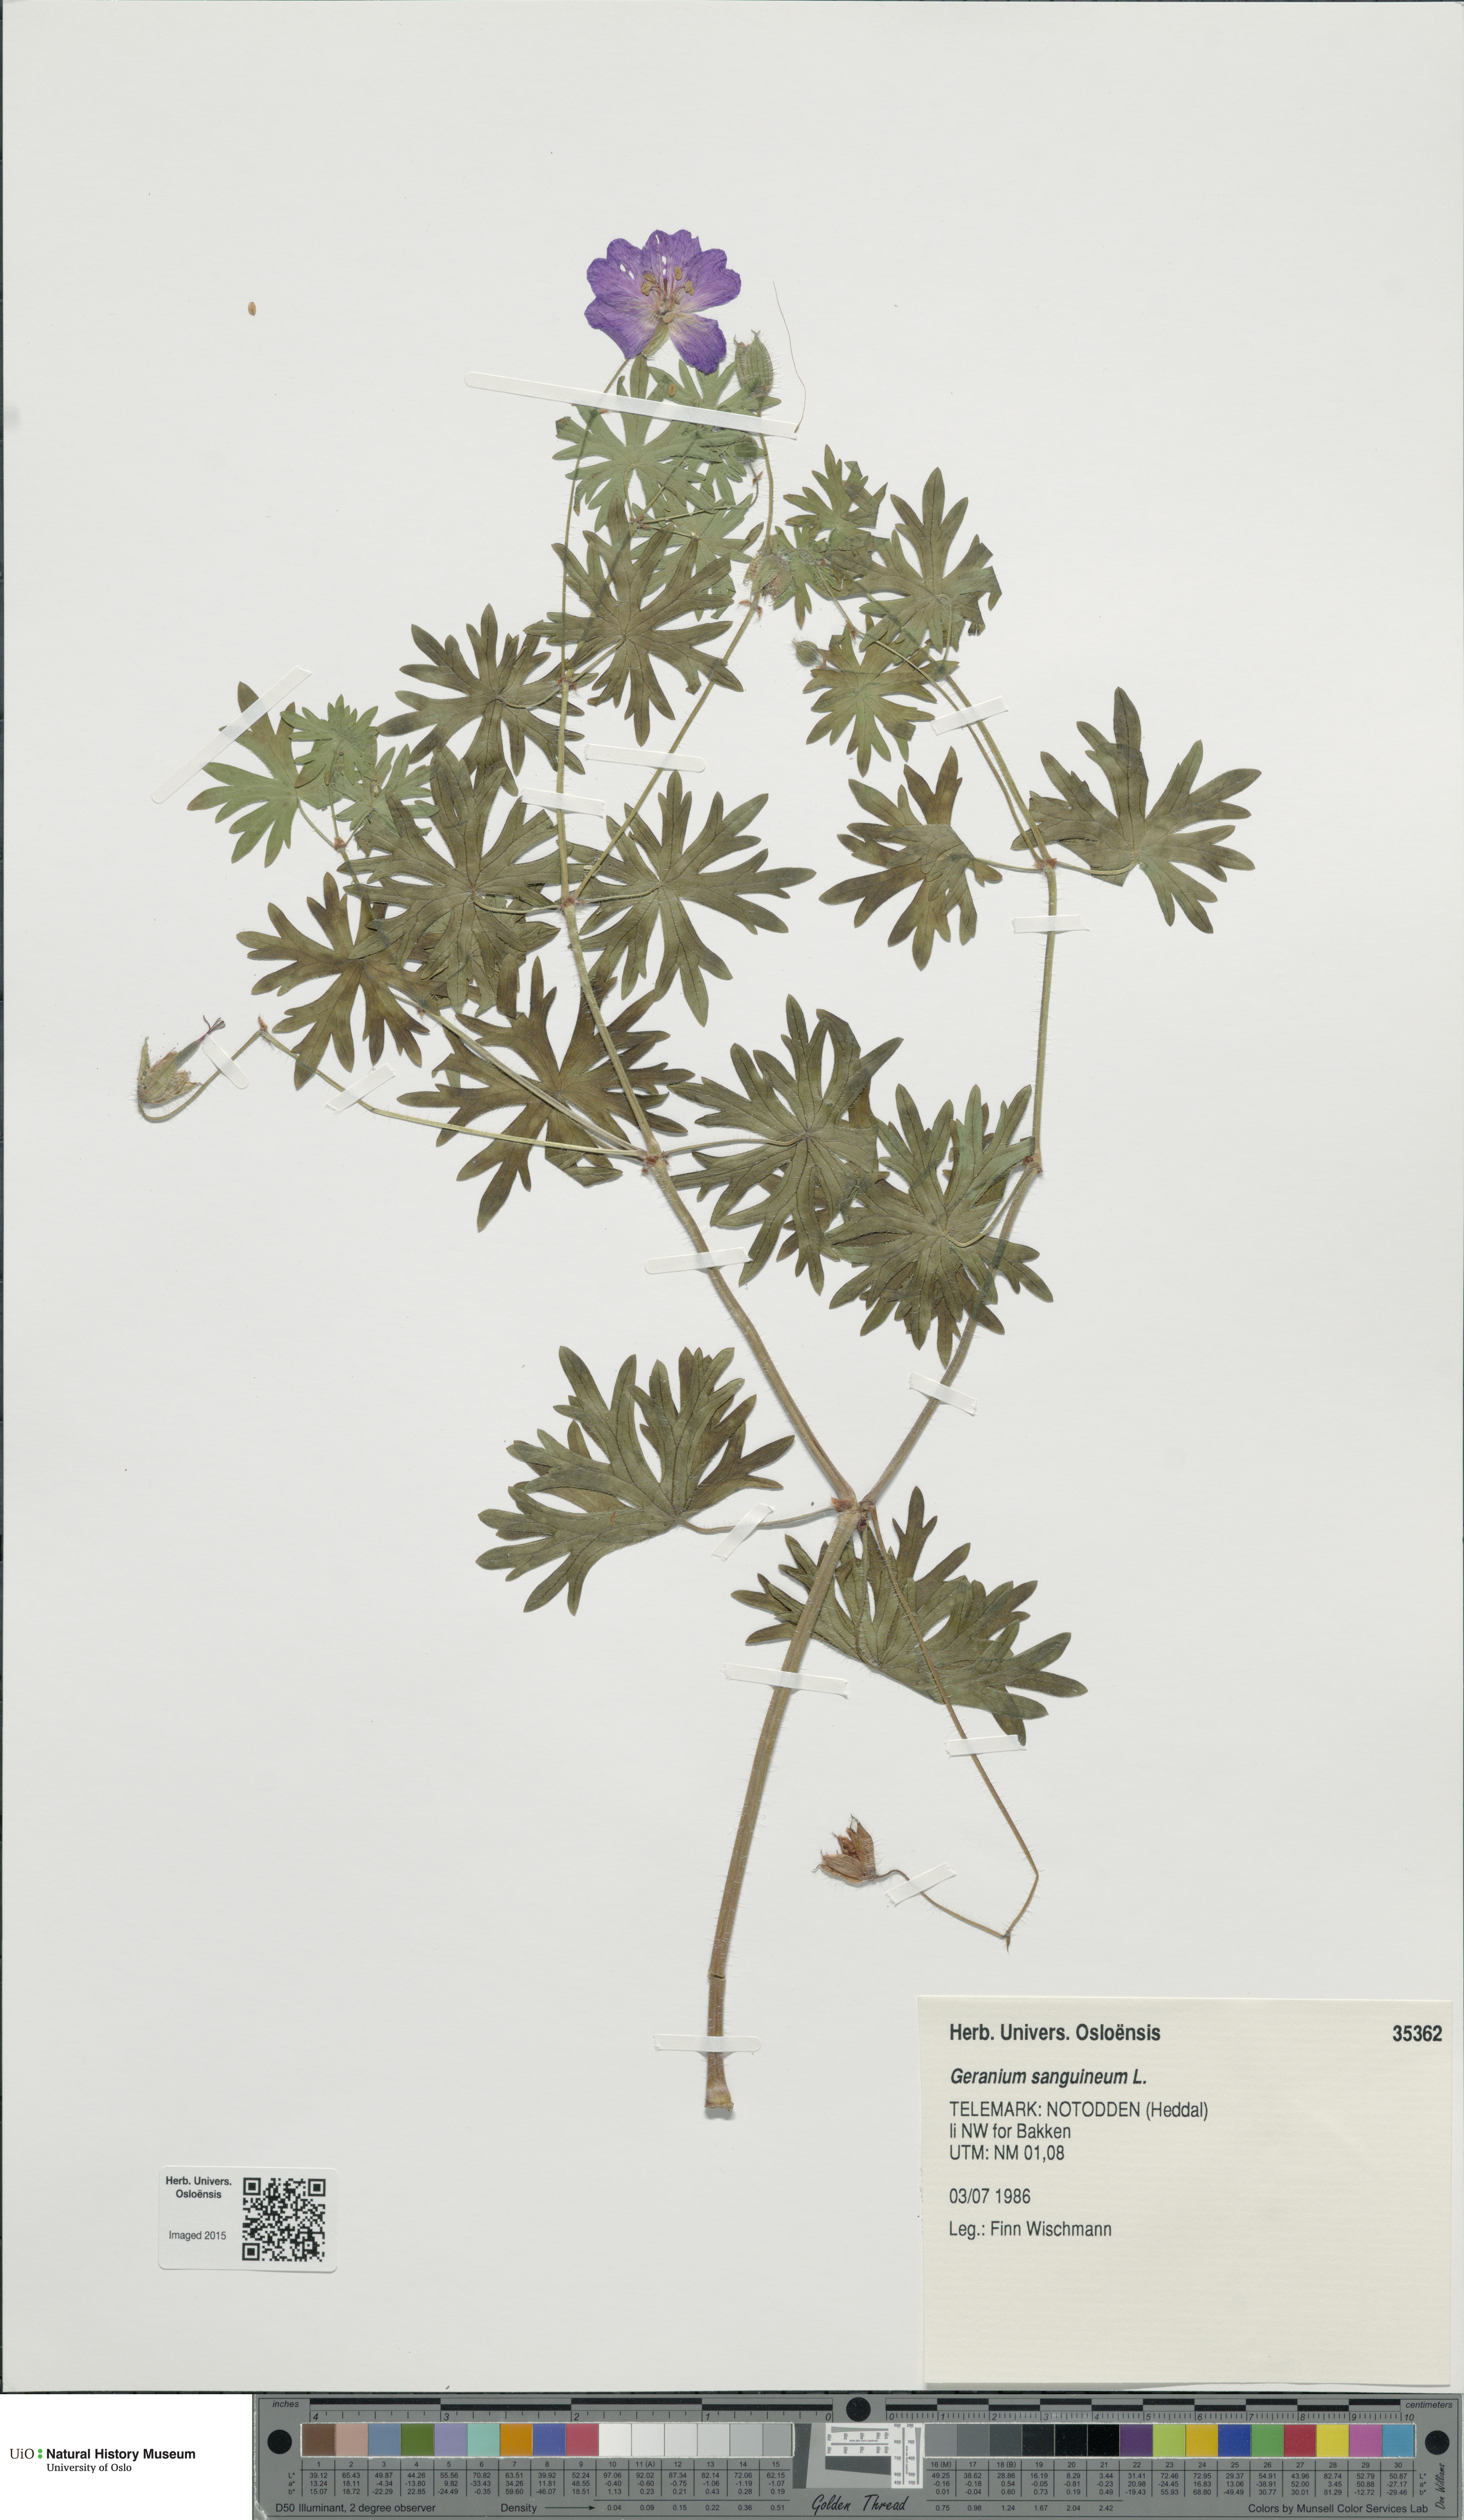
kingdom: Plantae
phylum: Tracheophyta
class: Magnoliopsida
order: Geraniales
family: Geraniaceae
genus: Geranium
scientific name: Geranium sanguineum
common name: Bloody crane's-bill
